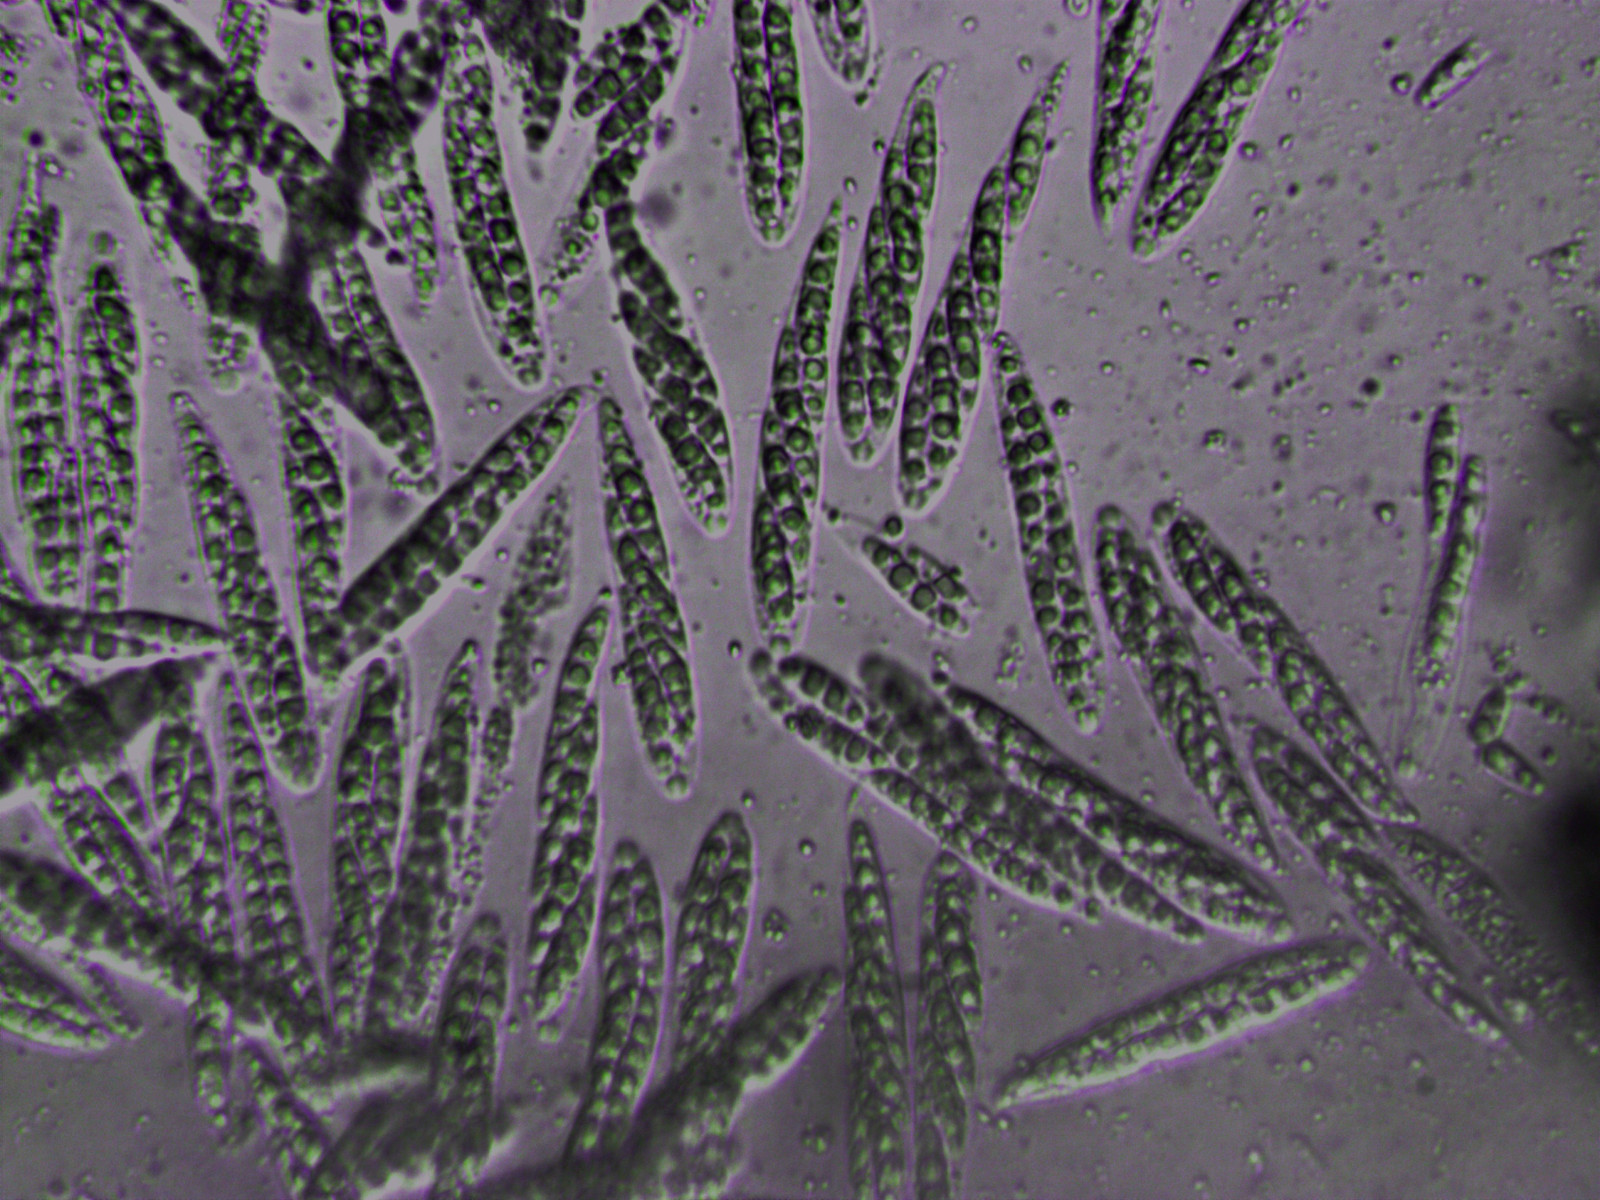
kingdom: Fungi
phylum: Ascomycota
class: Sordariomycetes
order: Diaporthales
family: Valsaceae
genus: Hypospilina
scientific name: Hypospilina pustula
